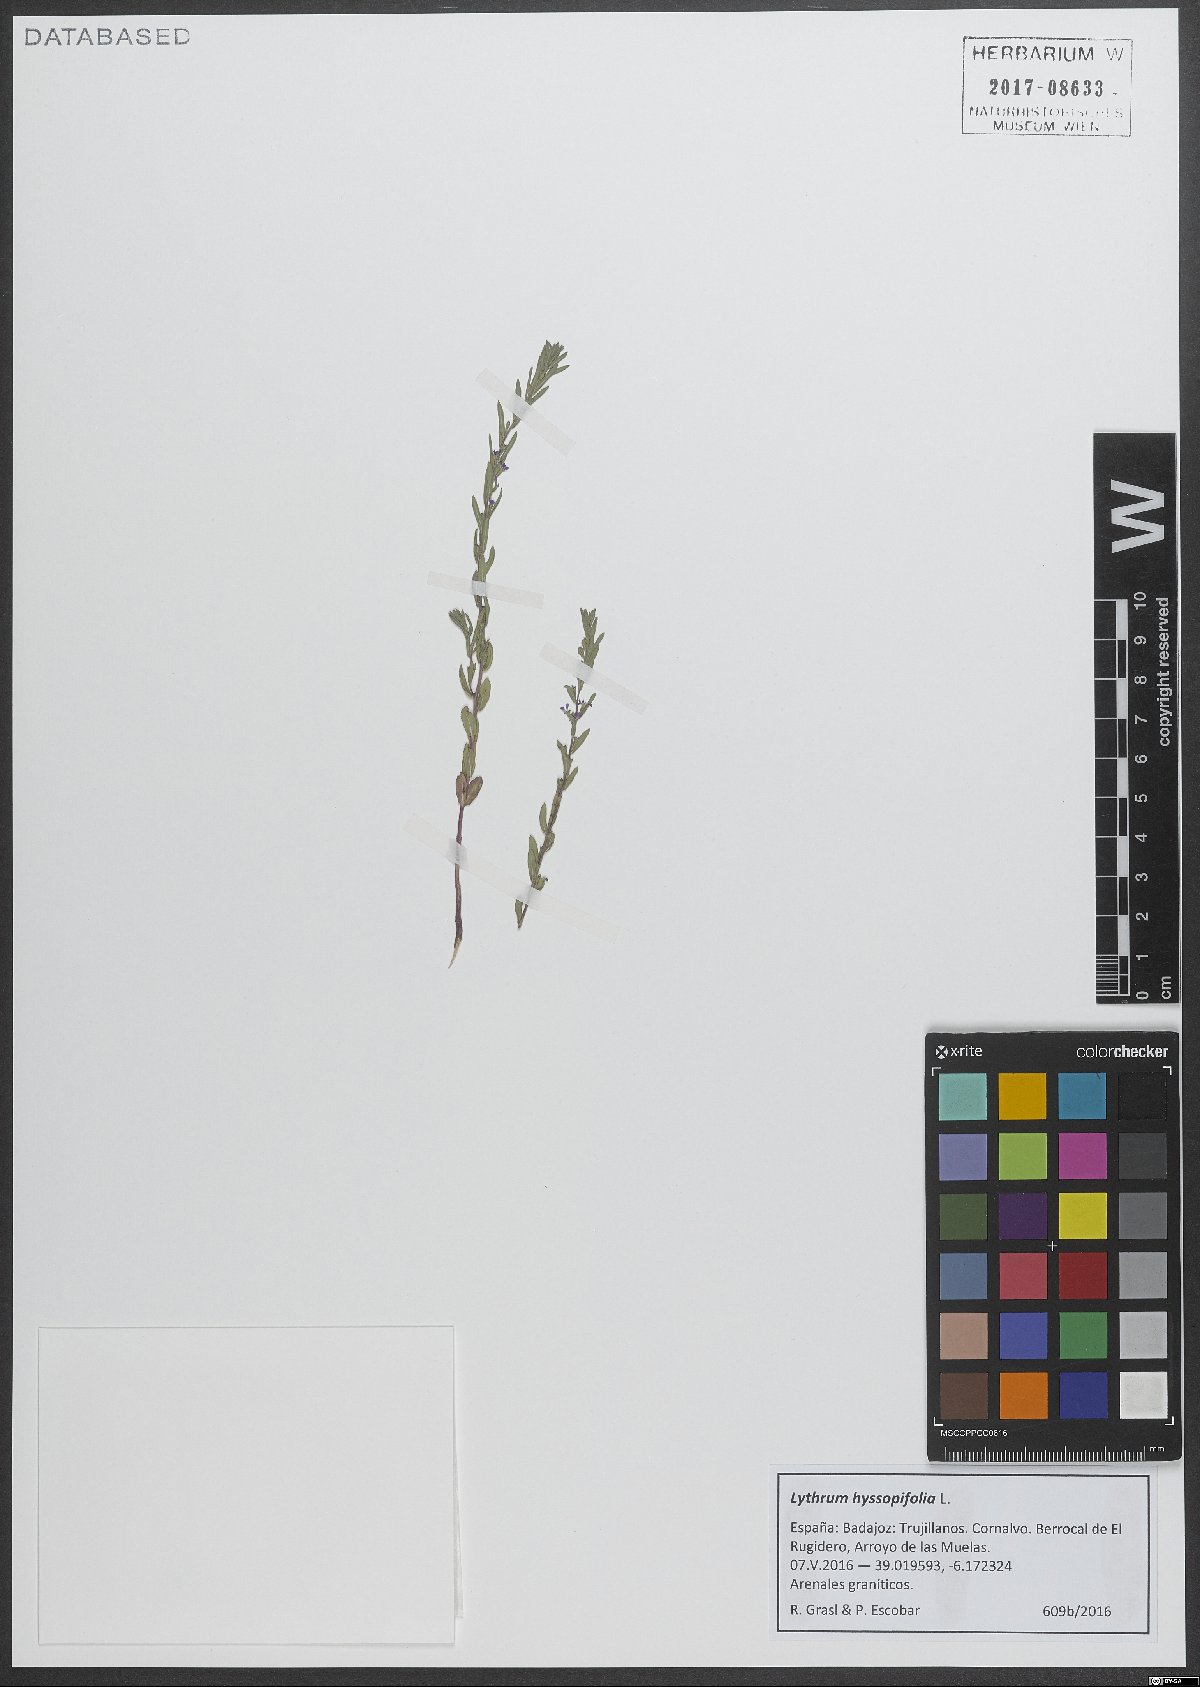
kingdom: Plantae
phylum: Tracheophyta
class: Magnoliopsida
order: Myrtales
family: Lythraceae
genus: Lythrum
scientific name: Lythrum hyssopifolia
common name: Grass-poly
